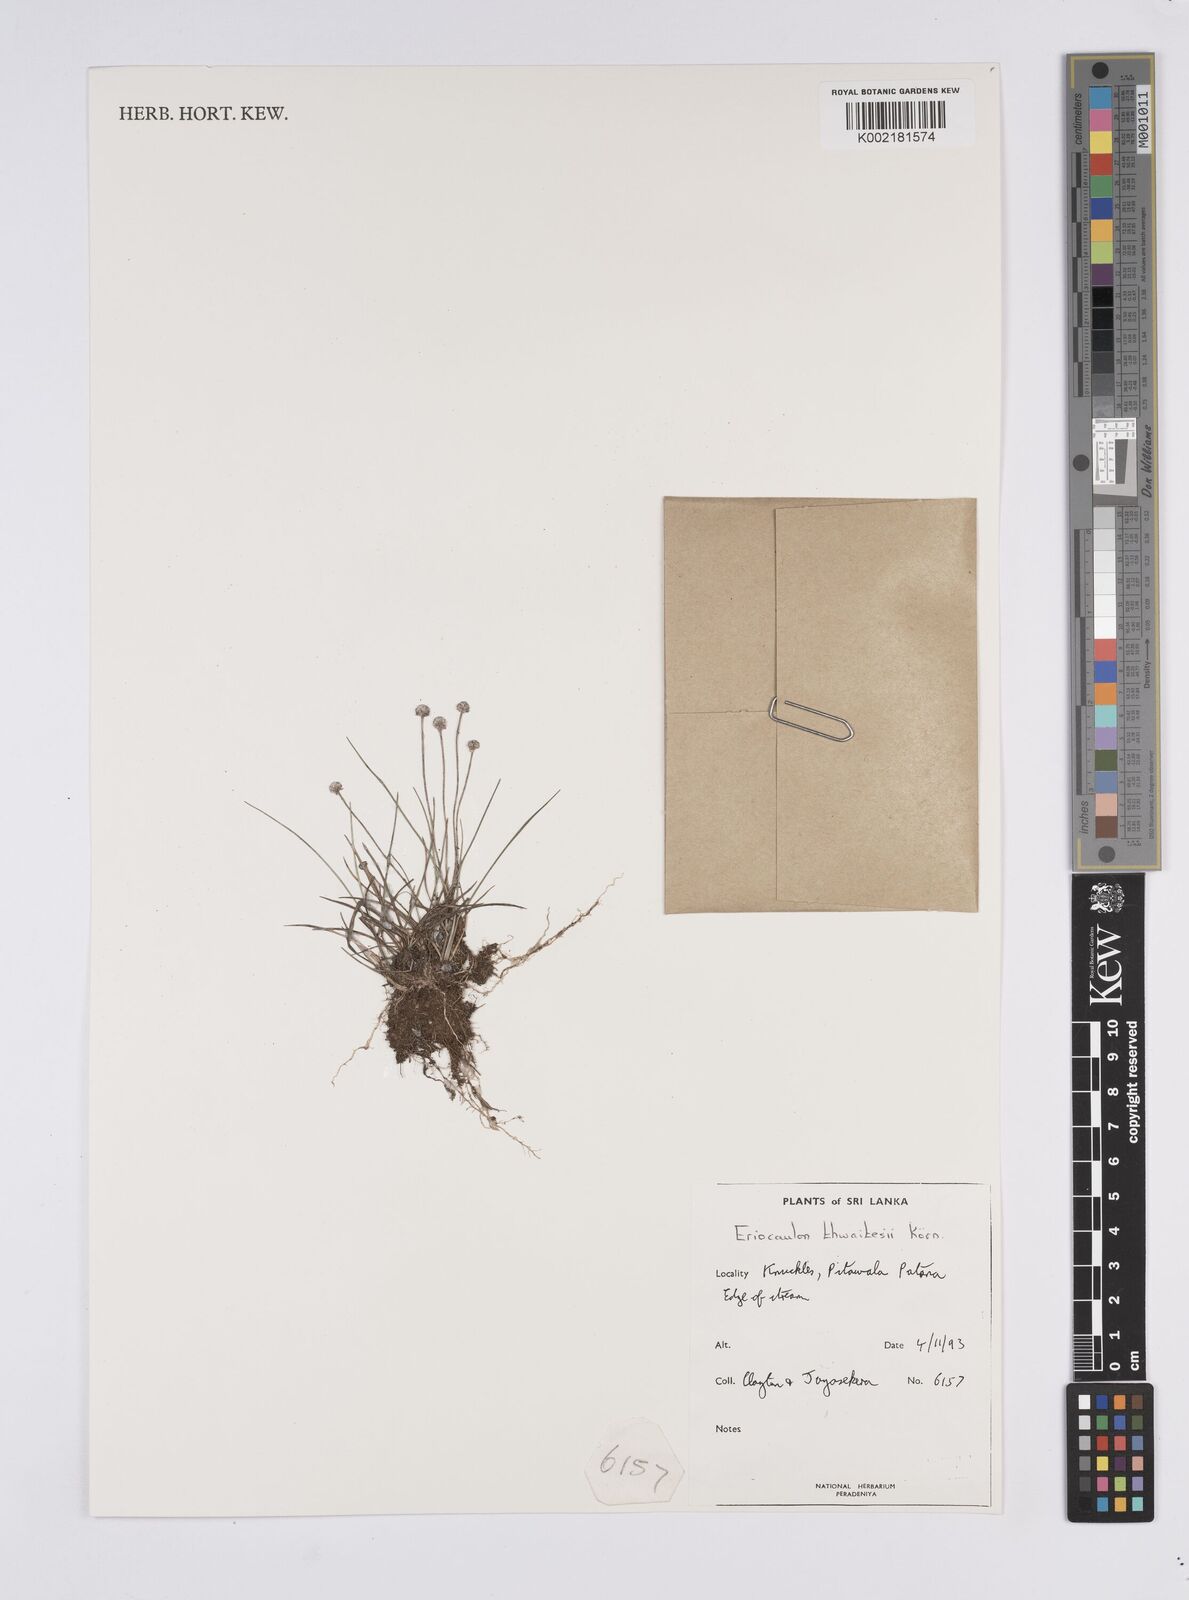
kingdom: Plantae
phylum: Tracheophyta
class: Liliopsida
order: Poales
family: Eriocaulaceae
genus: Eriocaulon
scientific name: Eriocaulon thwaitesii
